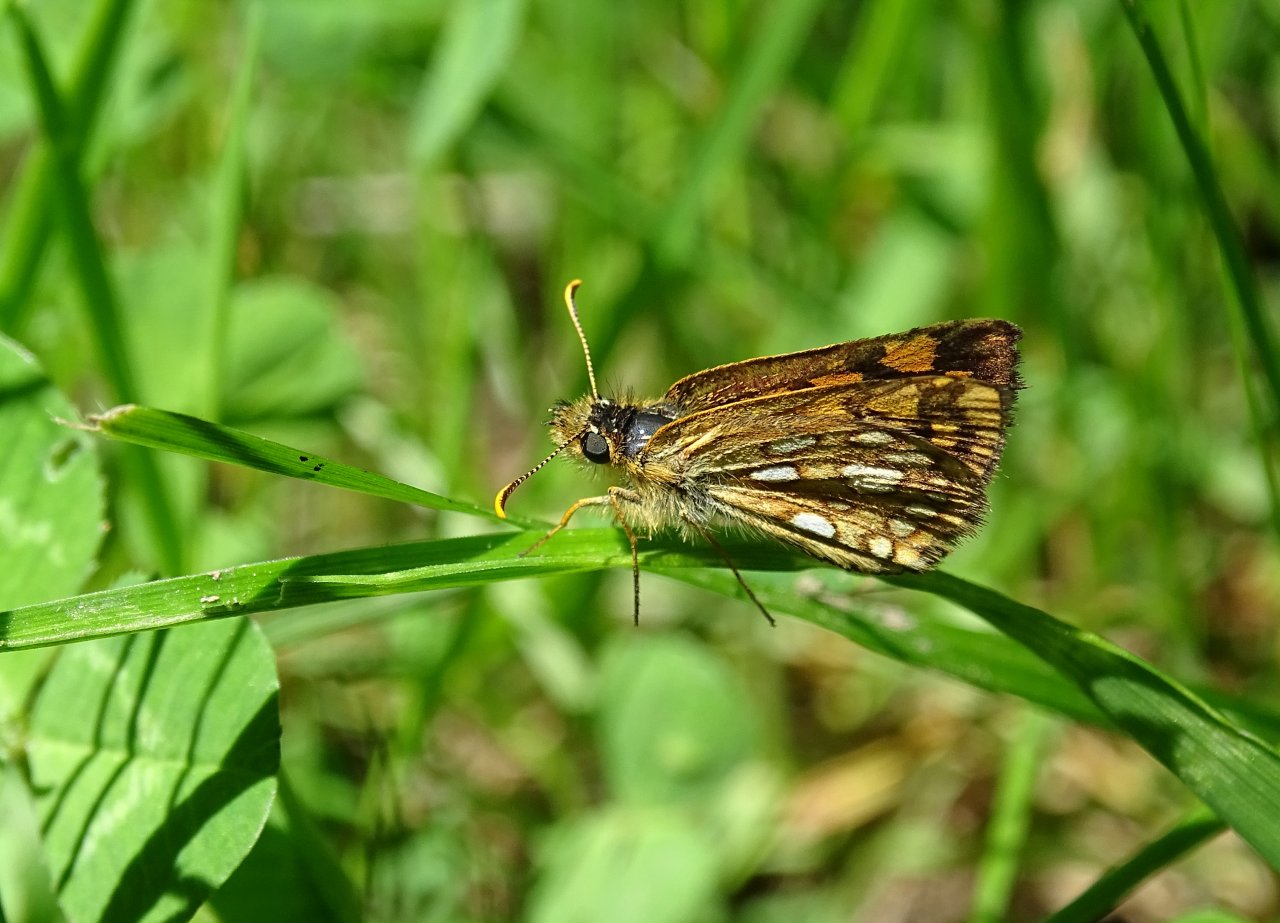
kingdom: Animalia
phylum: Arthropoda
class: Insecta
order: Lepidoptera
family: Hesperiidae
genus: Carterocephalus
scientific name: Carterocephalus palaemon
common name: Chequered Skipper
